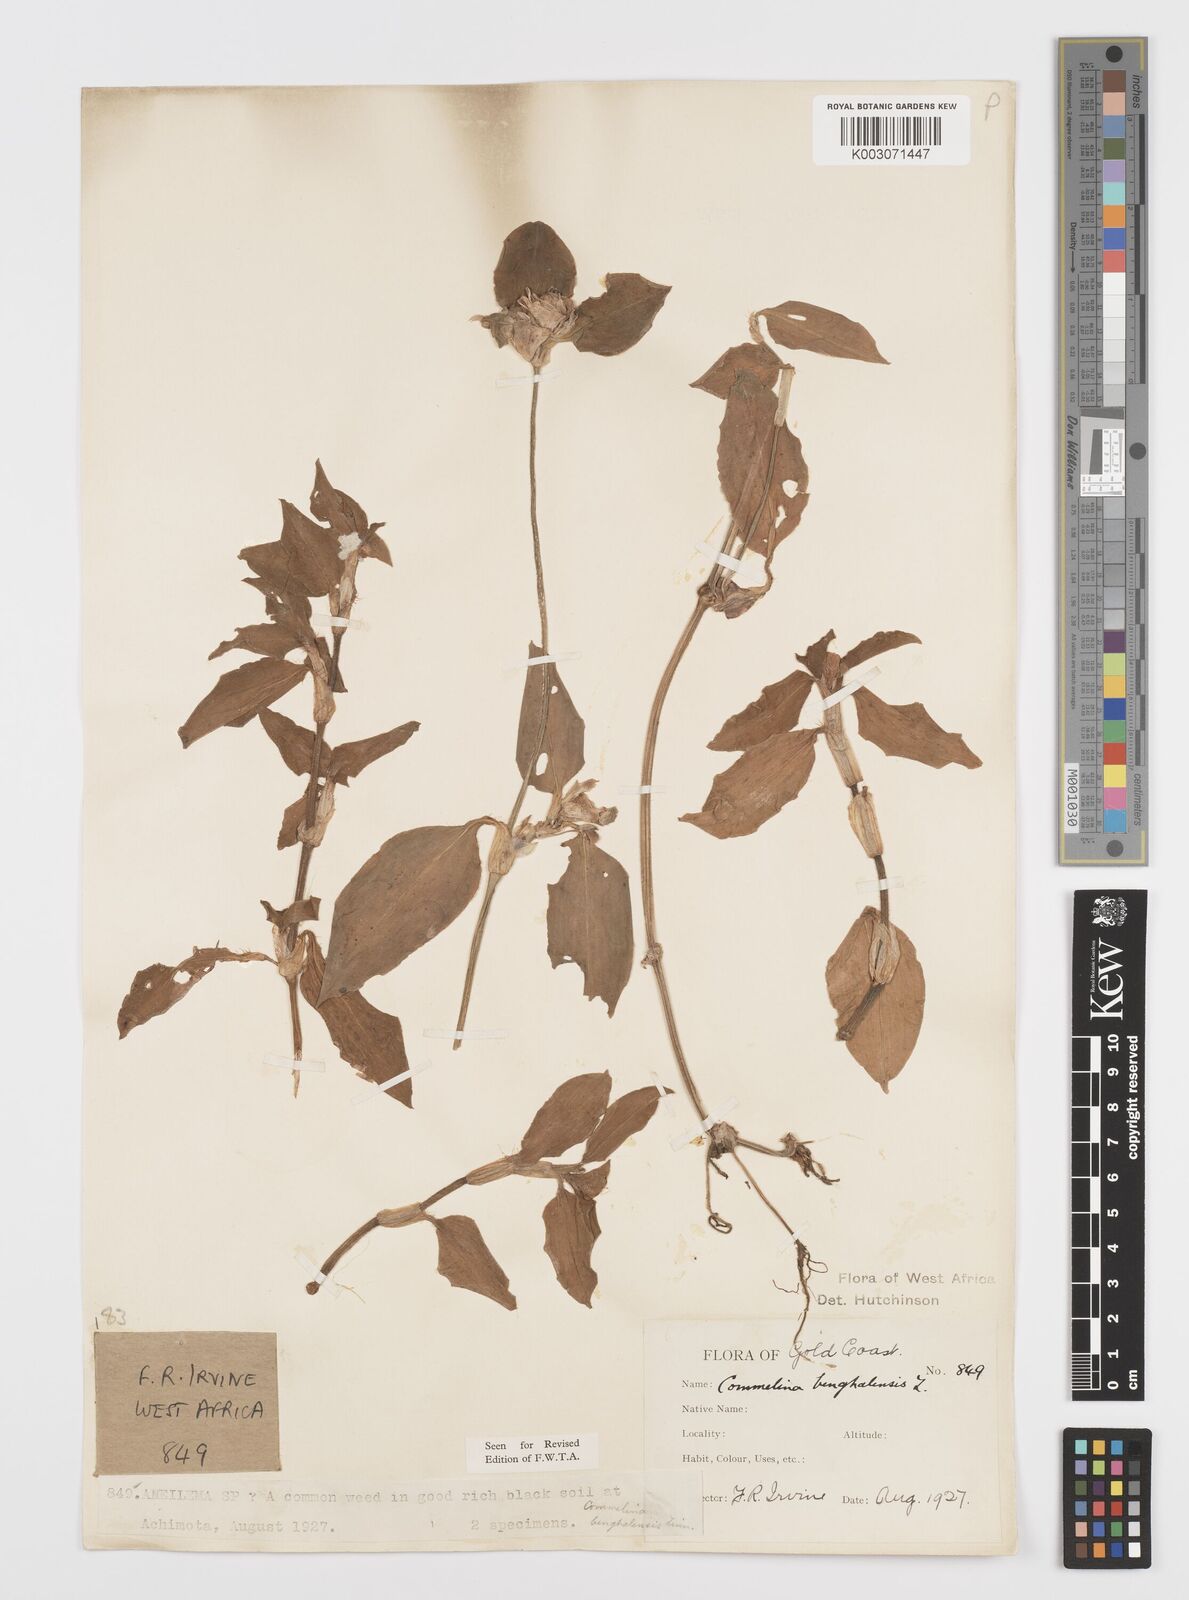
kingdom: Plantae
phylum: Tracheophyta
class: Liliopsida
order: Commelinales
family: Commelinaceae
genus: Commelina
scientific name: Commelina benghalensis
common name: Jio
